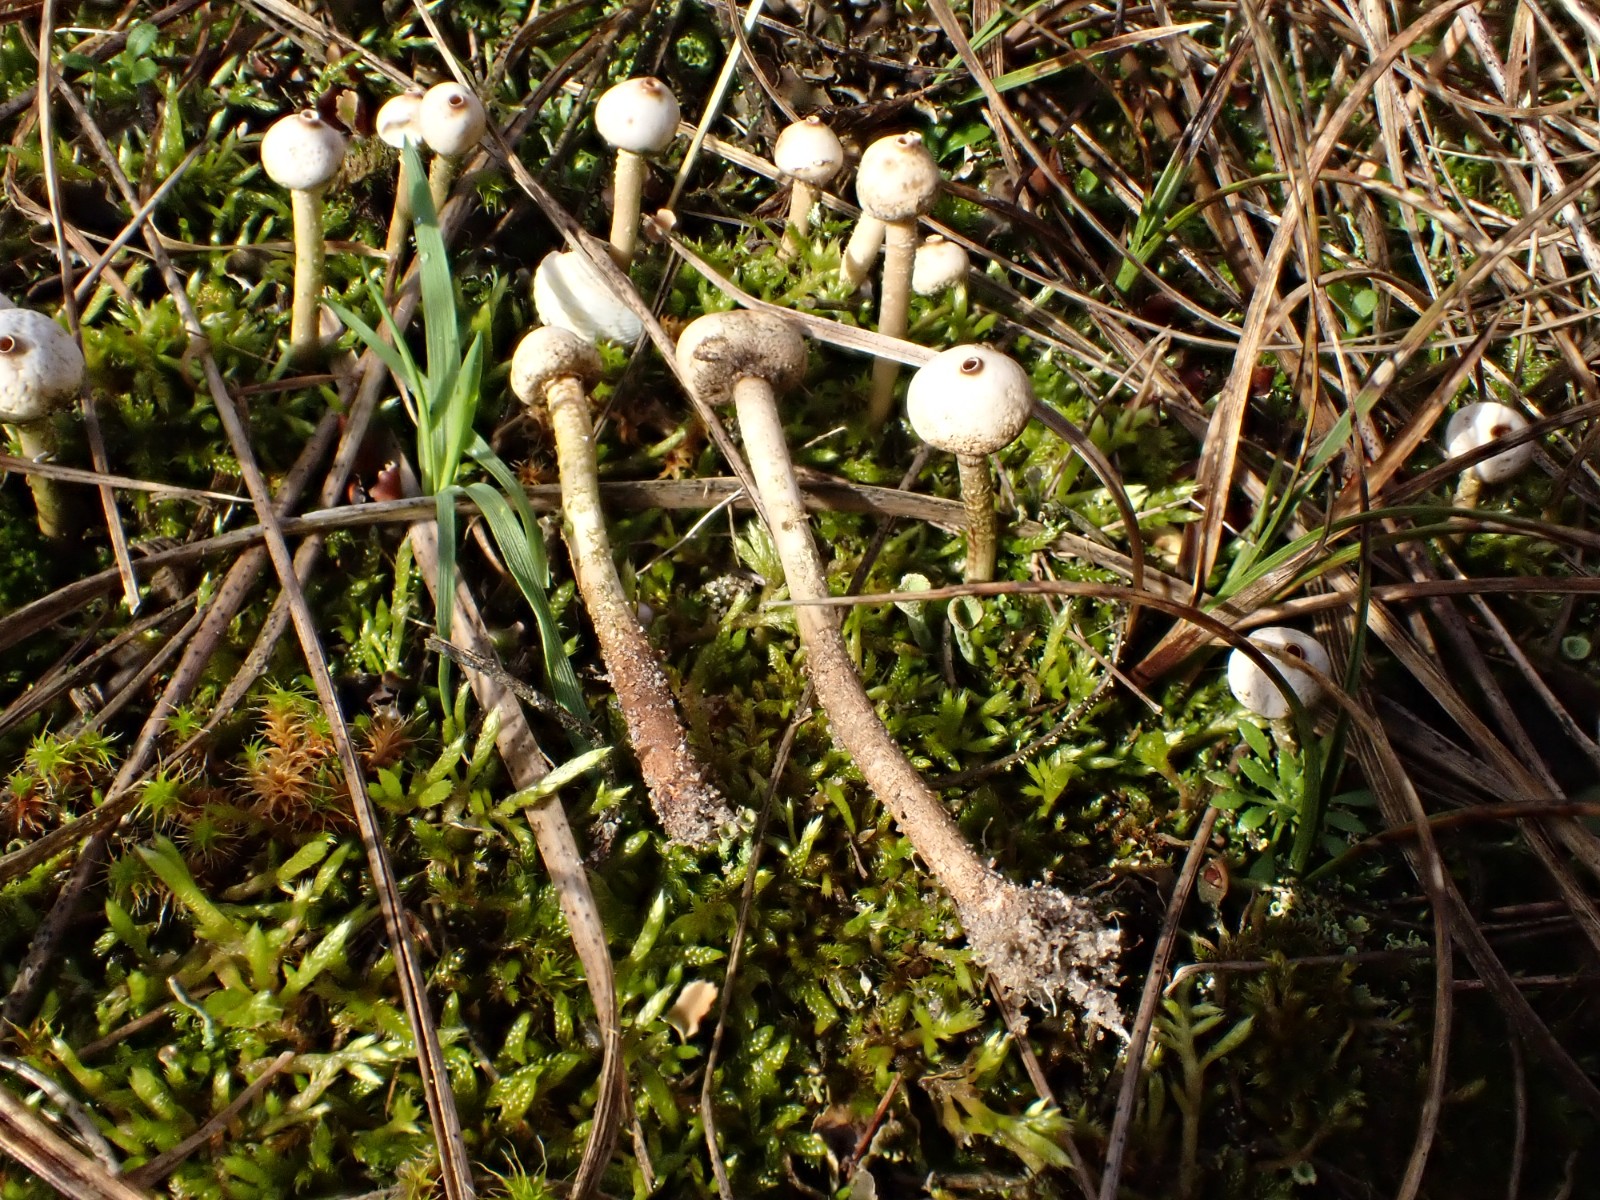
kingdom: Fungi
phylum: Basidiomycota
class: Agaricomycetes
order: Agaricales
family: Agaricaceae
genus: Tulostoma
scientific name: Tulostoma brumale
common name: vinter-stilkbovist
